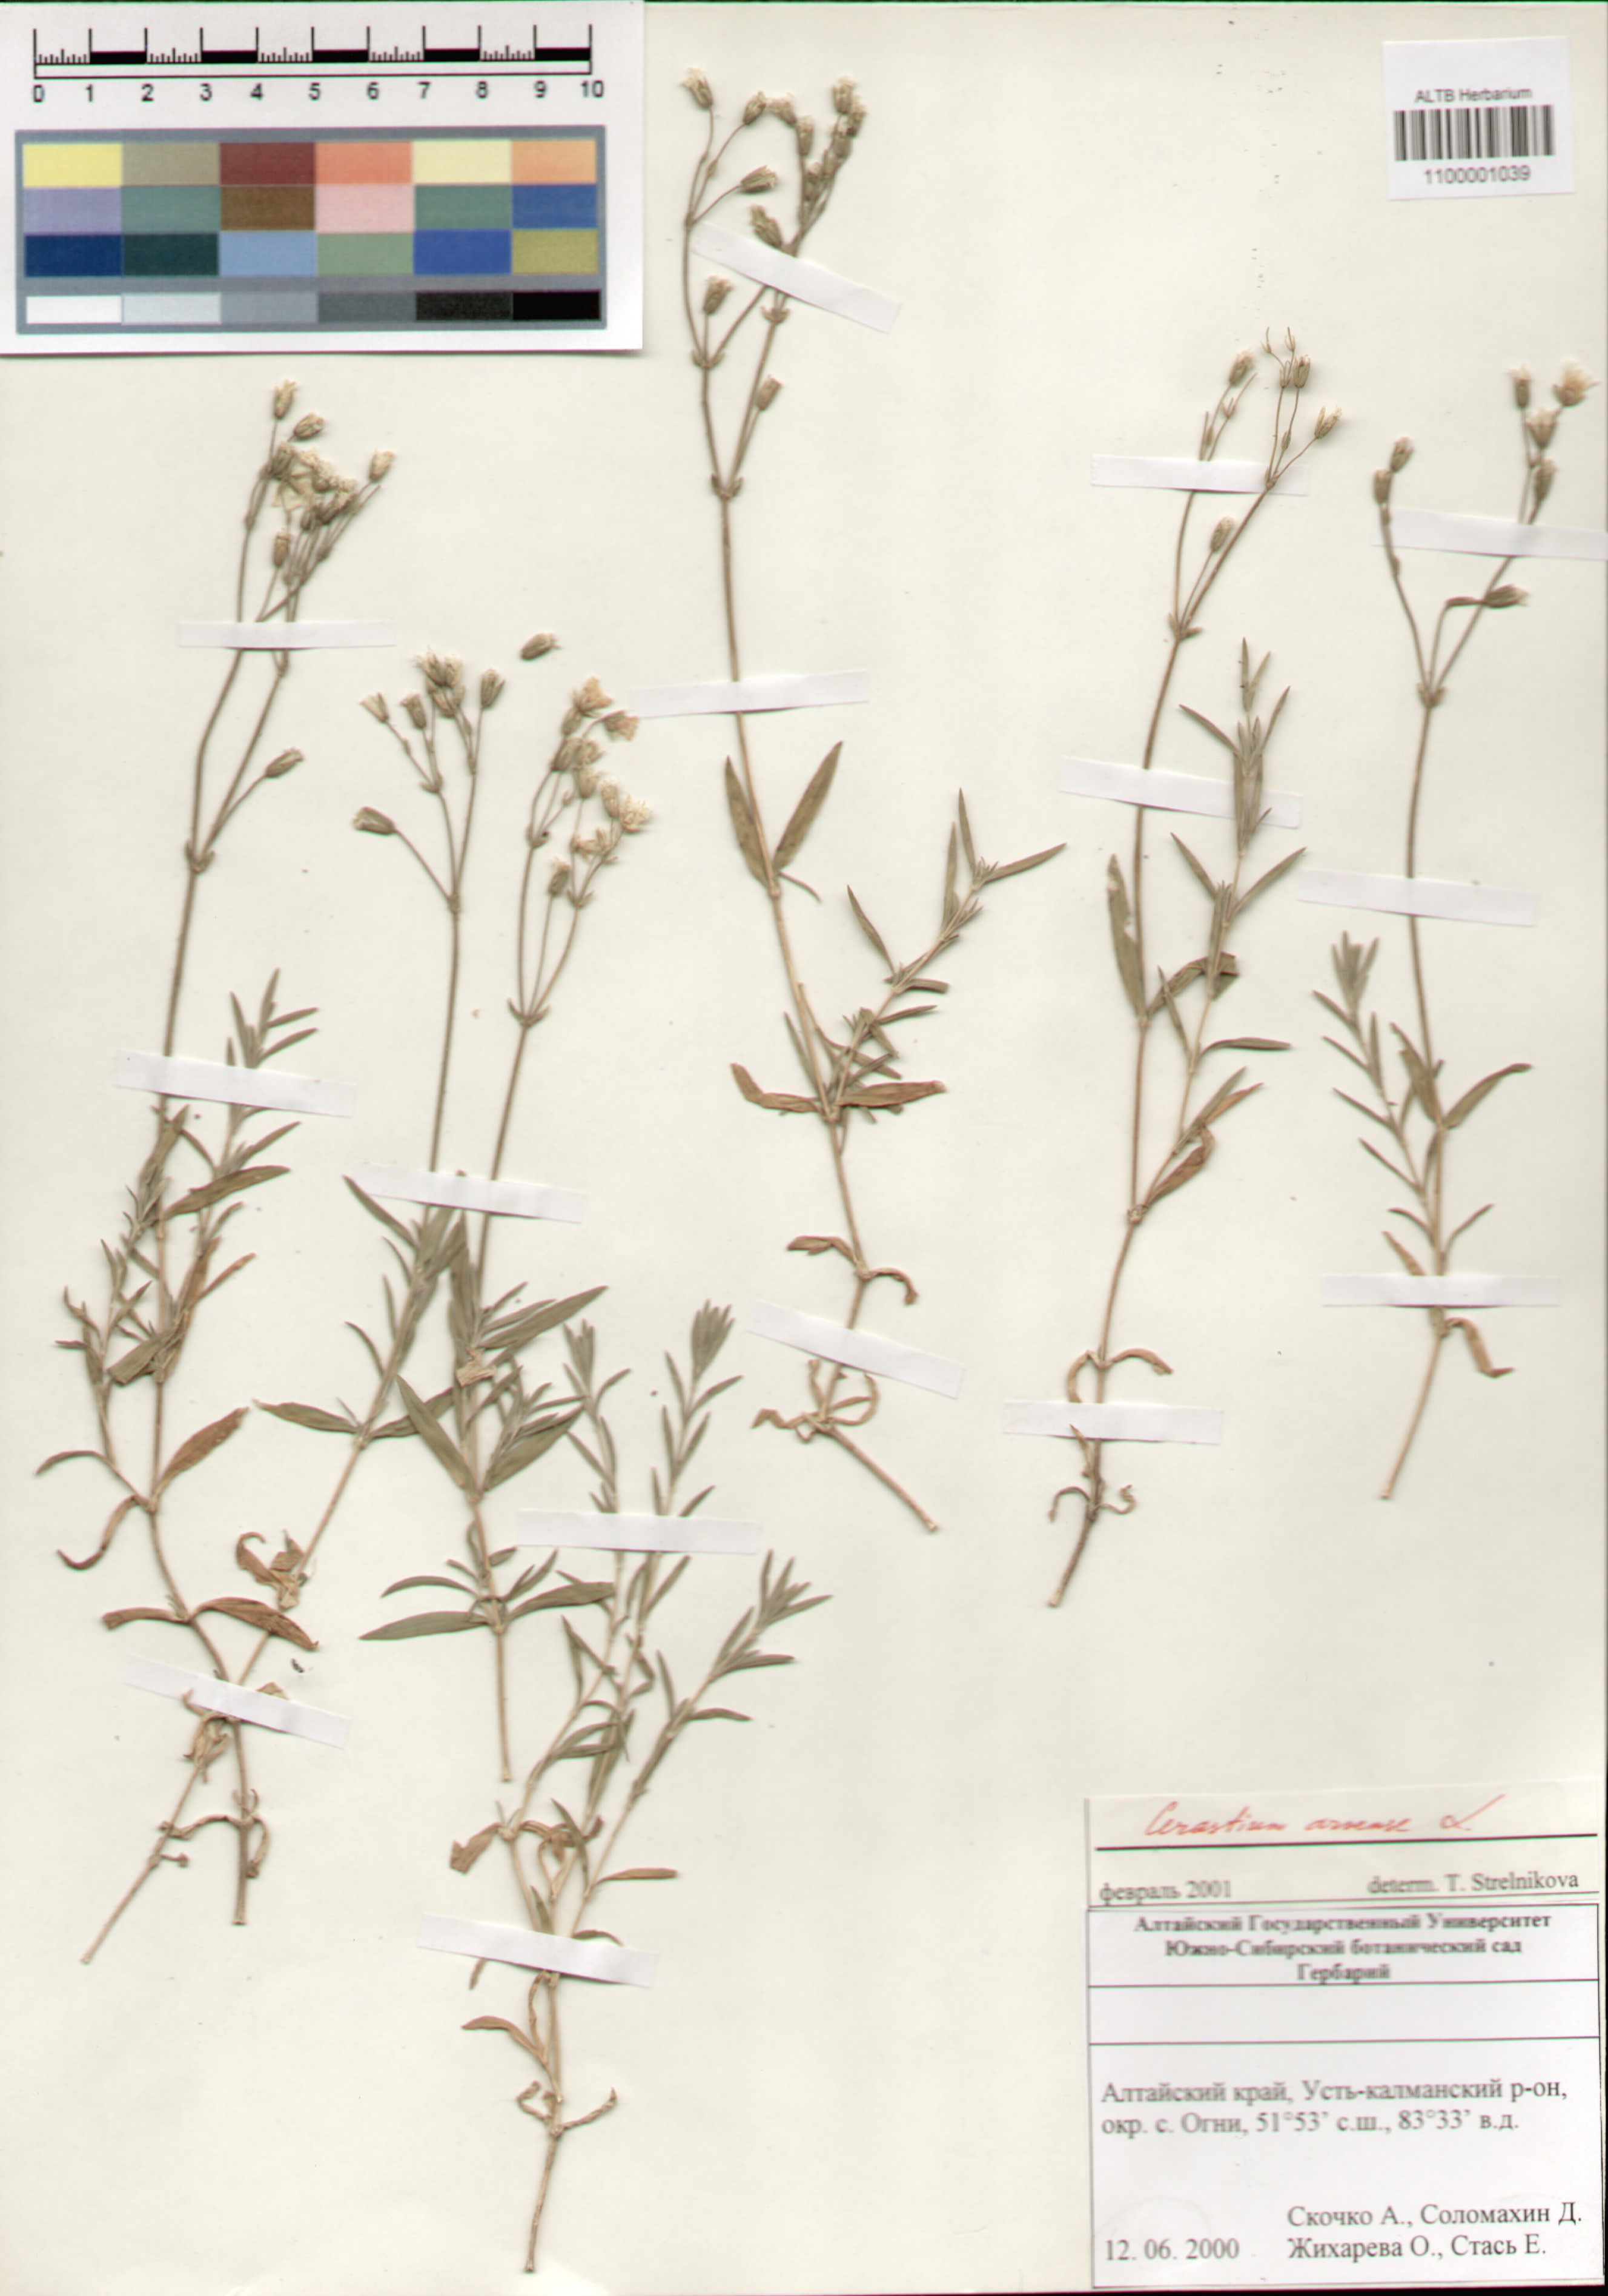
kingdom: Plantae
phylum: Tracheophyta
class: Magnoliopsida
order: Caryophyllales
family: Caryophyllaceae
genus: Cerastium
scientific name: Cerastium arvense
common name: Field mouse-ear
